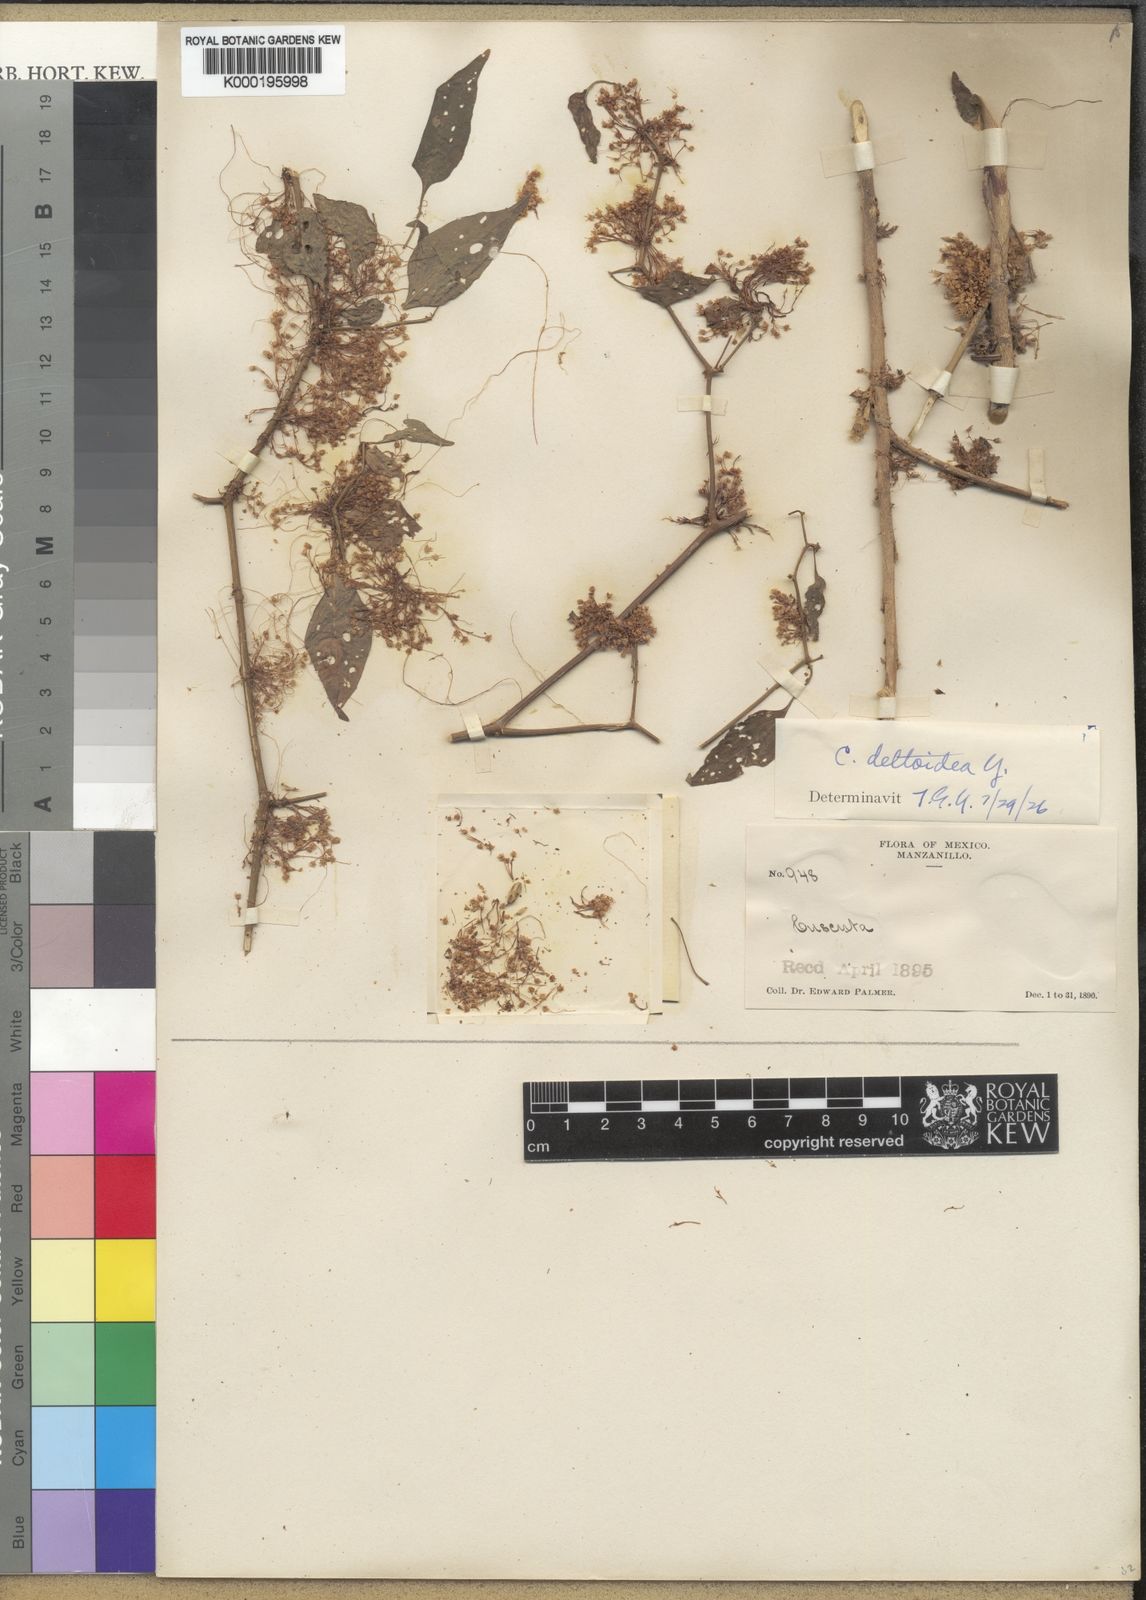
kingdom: Plantae
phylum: Tracheophyta
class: Magnoliopsida
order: Solanales
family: Convolvulaceae
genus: Cuscuta
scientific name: Cuscuta deltoidea
